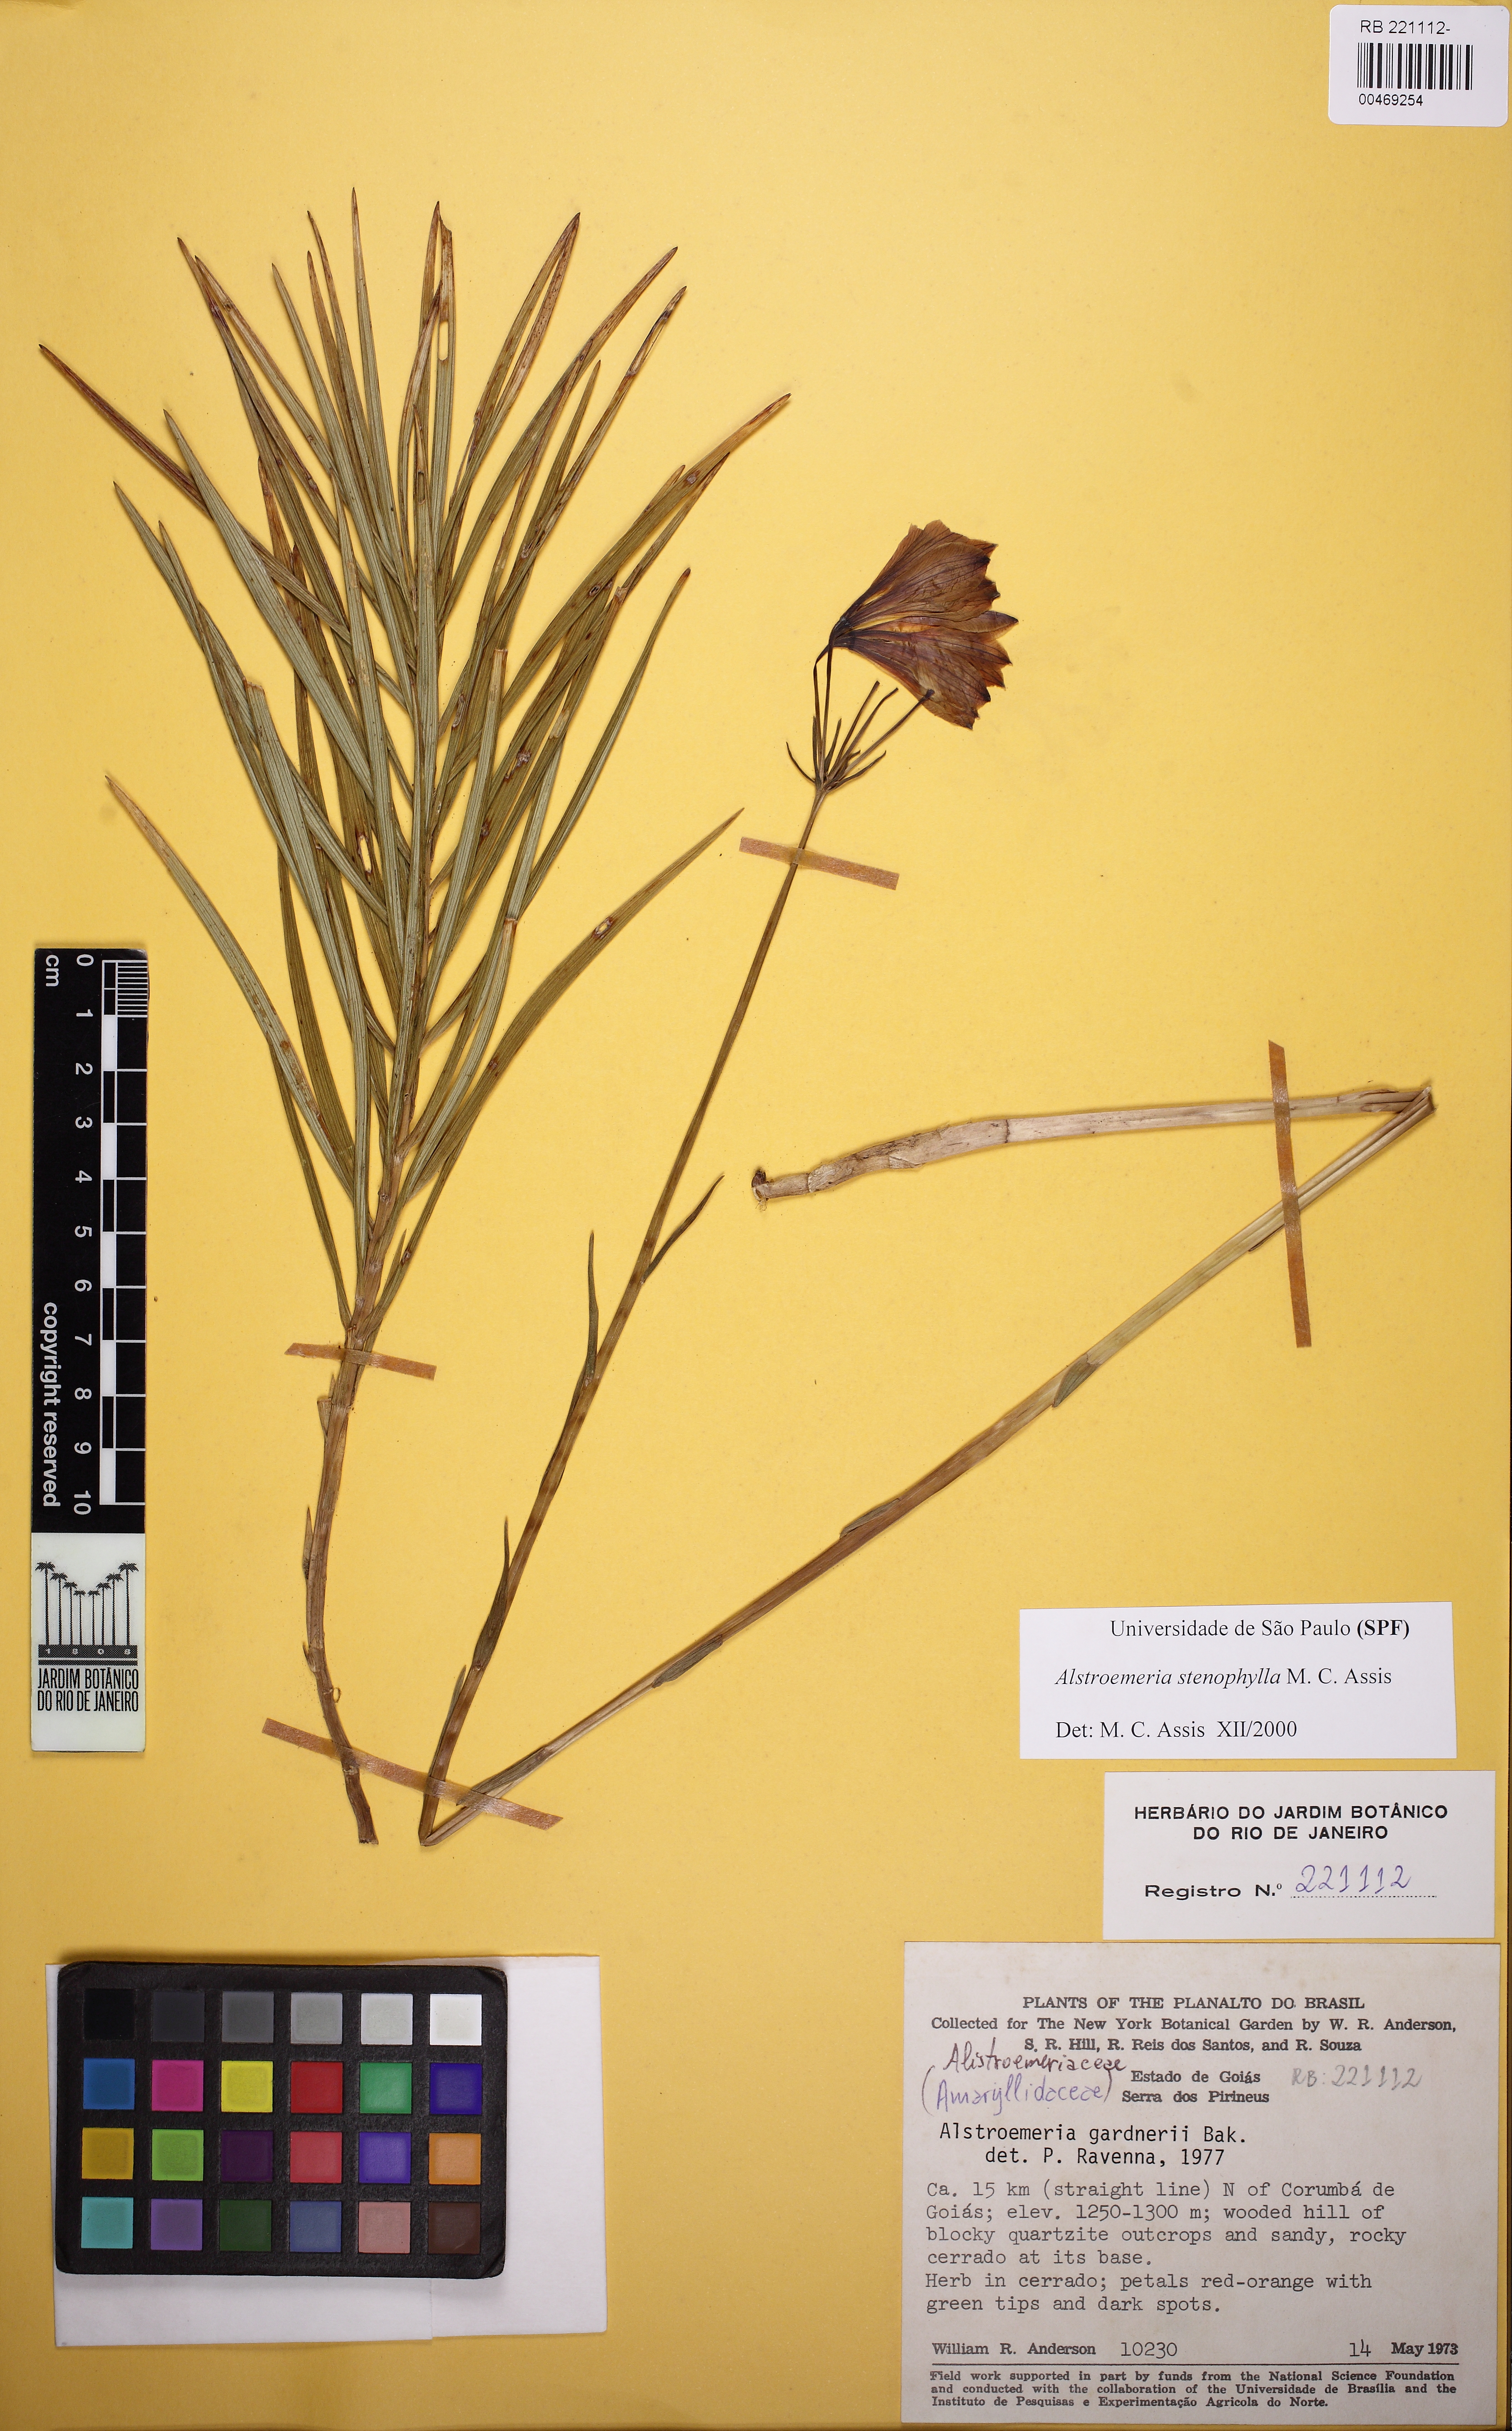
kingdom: Plantae
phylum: Tracheophyta
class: Liliopsida
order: Liliales
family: Alstroemeriaceae
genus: Alstroemeria
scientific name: Alstroemeria stenophylla
